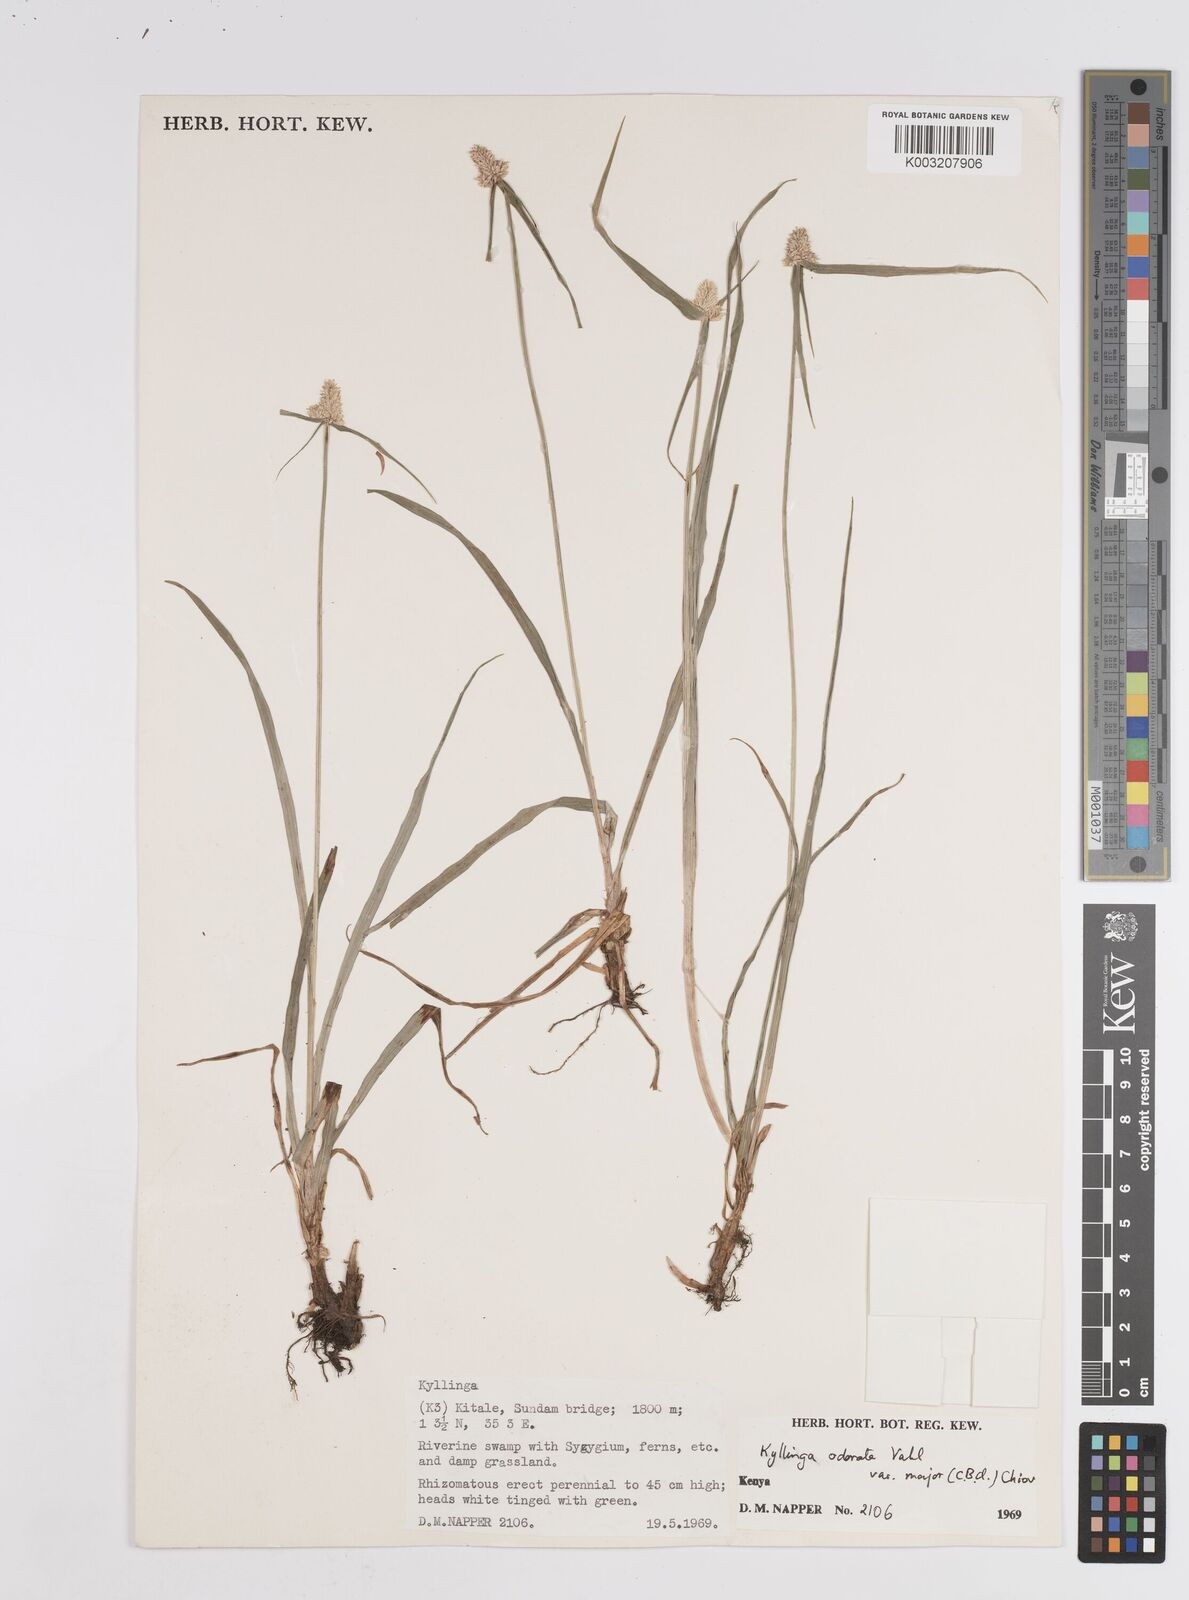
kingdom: Plantae
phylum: Tracheophyta
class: Liliopsida
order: Poales
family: Cyperaceae
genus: Cyperus
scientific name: Cyperus
